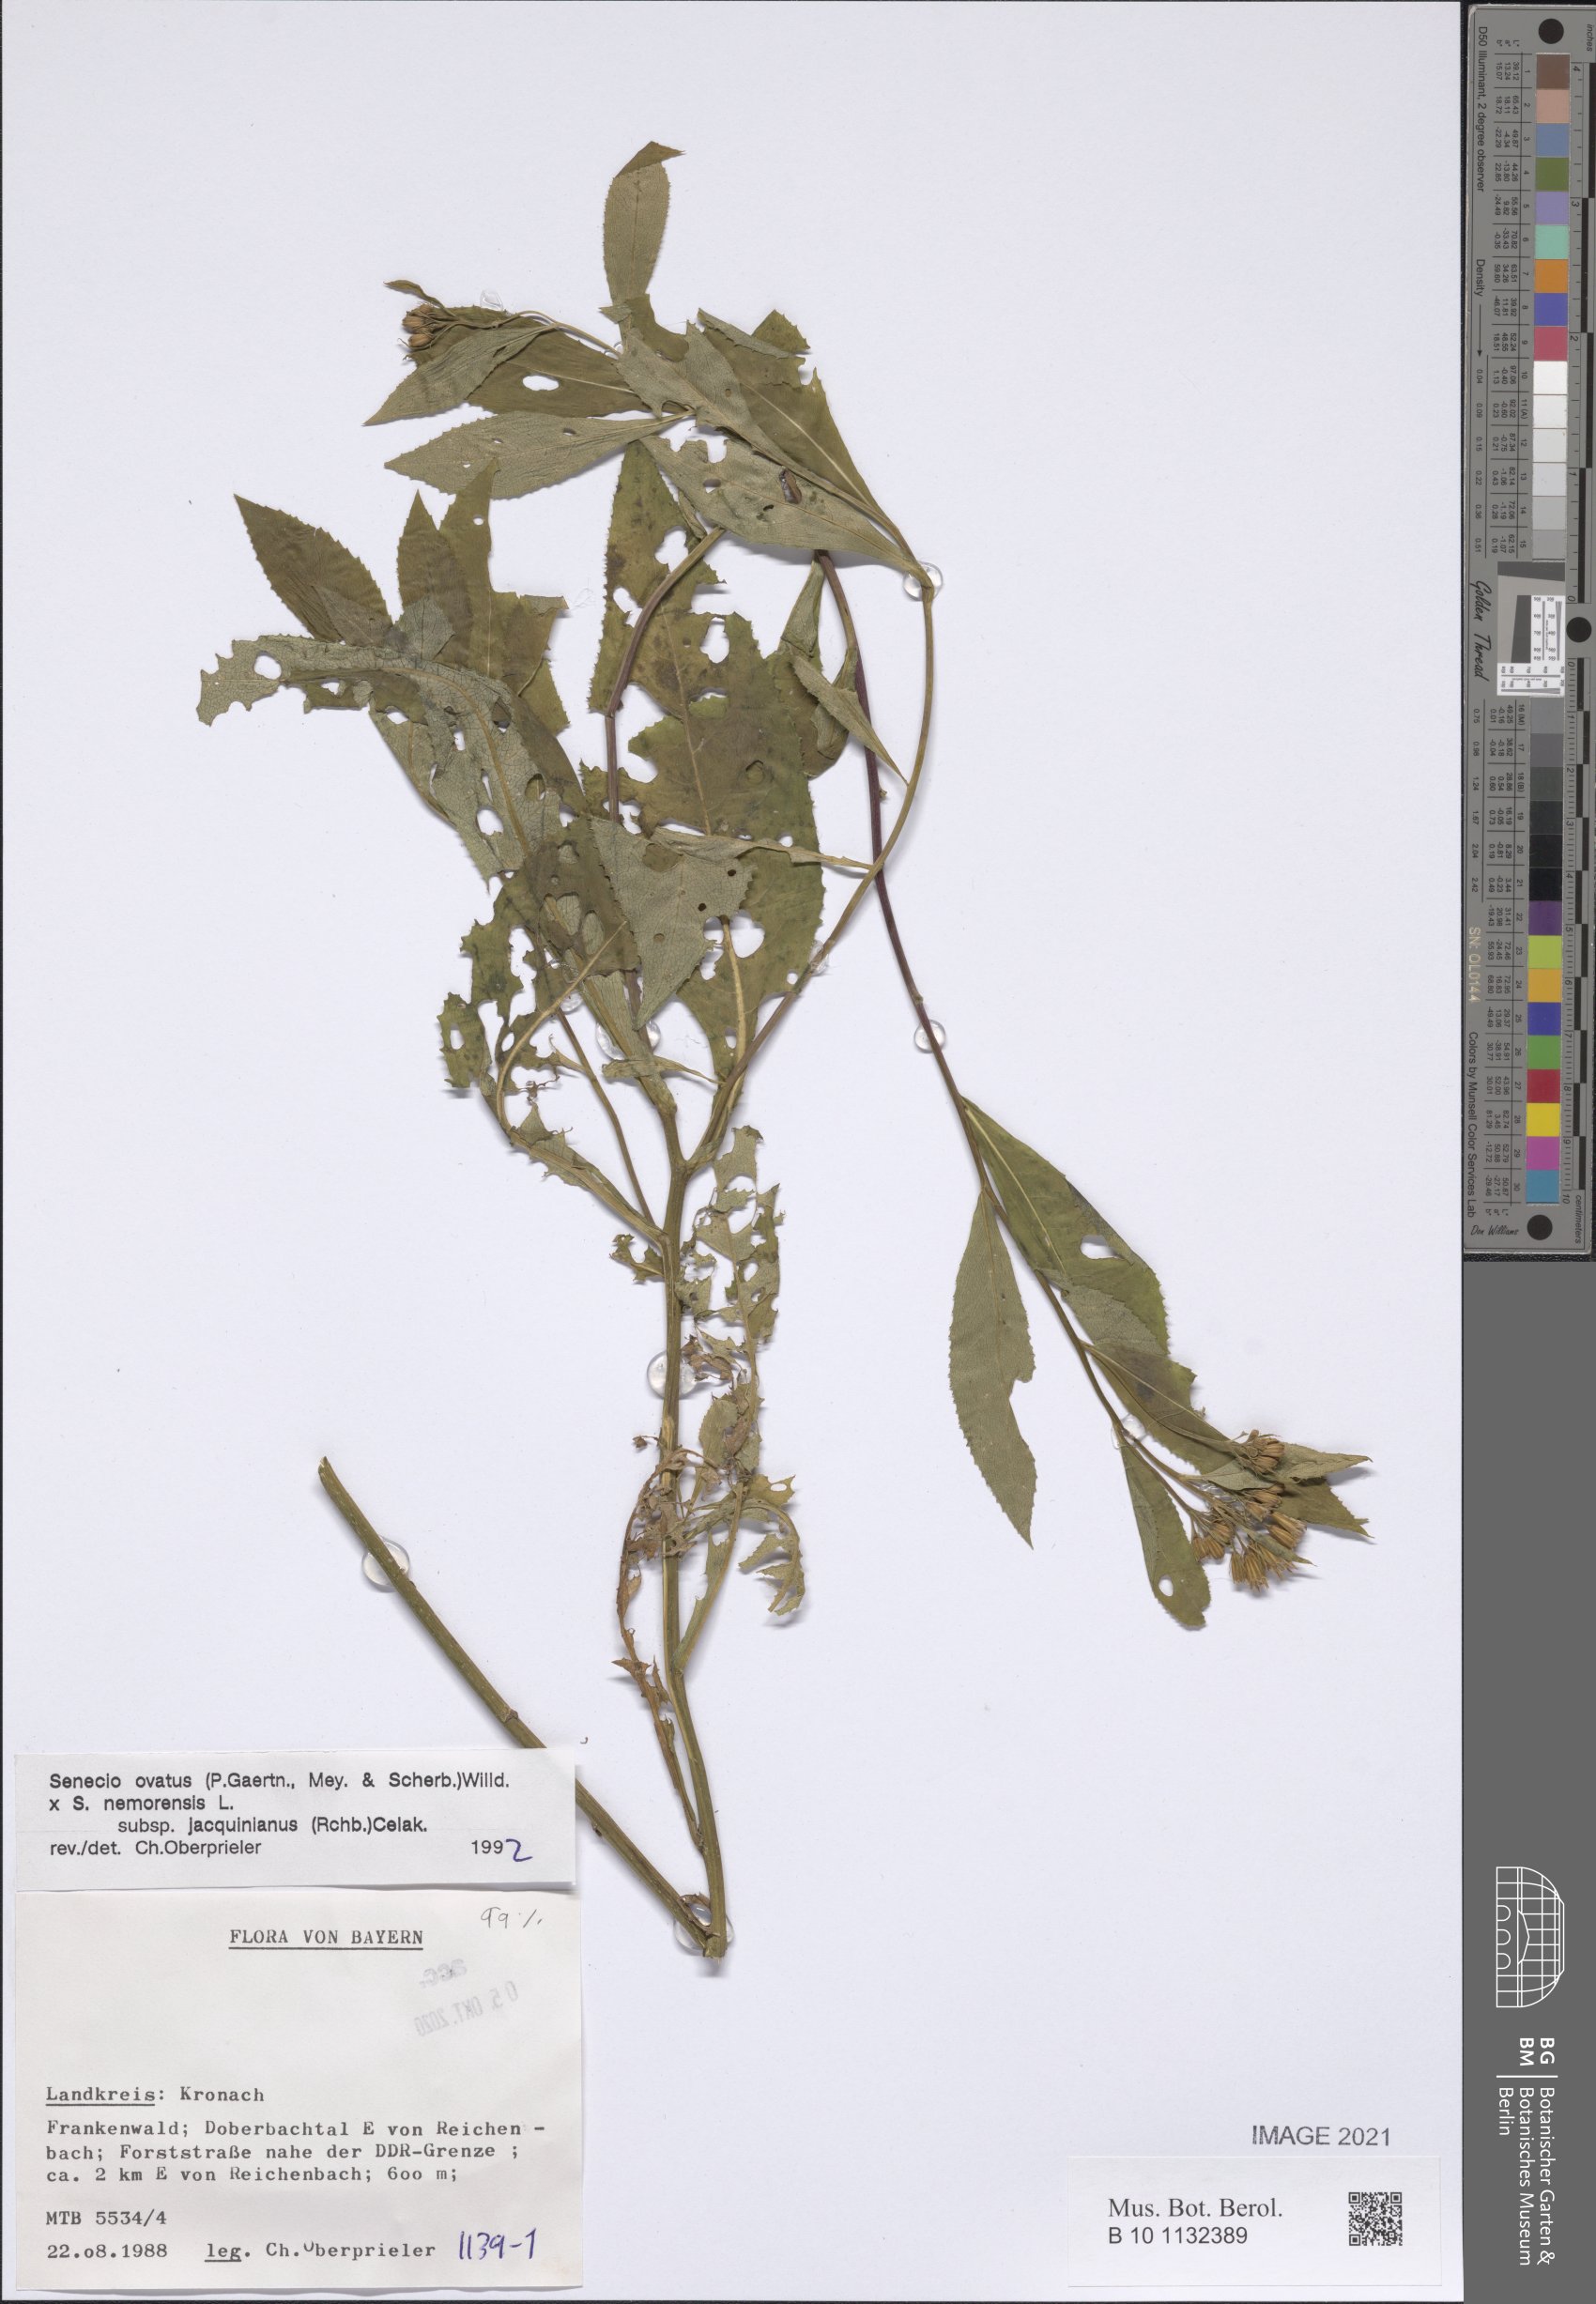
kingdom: Plantae
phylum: Tracheophyta
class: Magnoliopsida
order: Asterales
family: Asteraceae
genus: Senecio
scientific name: Senecio ovatus
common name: Wood ragwort
